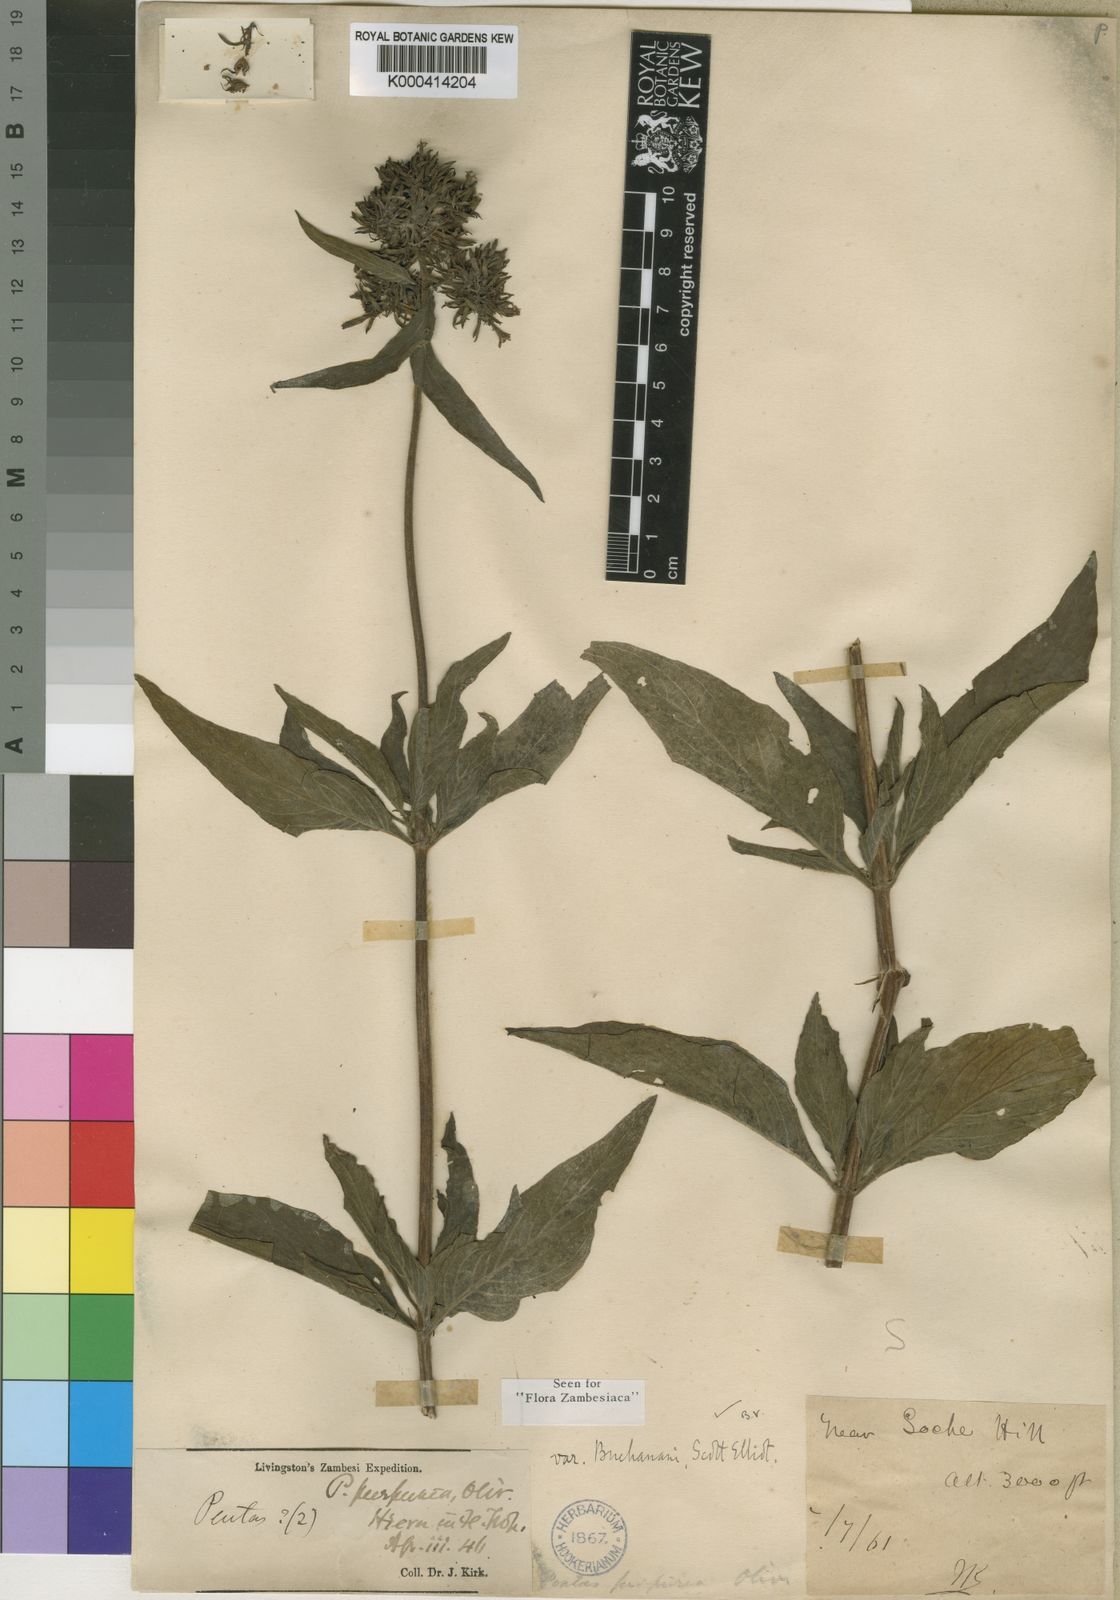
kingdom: Plantae
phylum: Tracheophyta
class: Magnoliopsida
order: Gentianales
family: Rubiaceae
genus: Pentas
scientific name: Pentas purpurea
